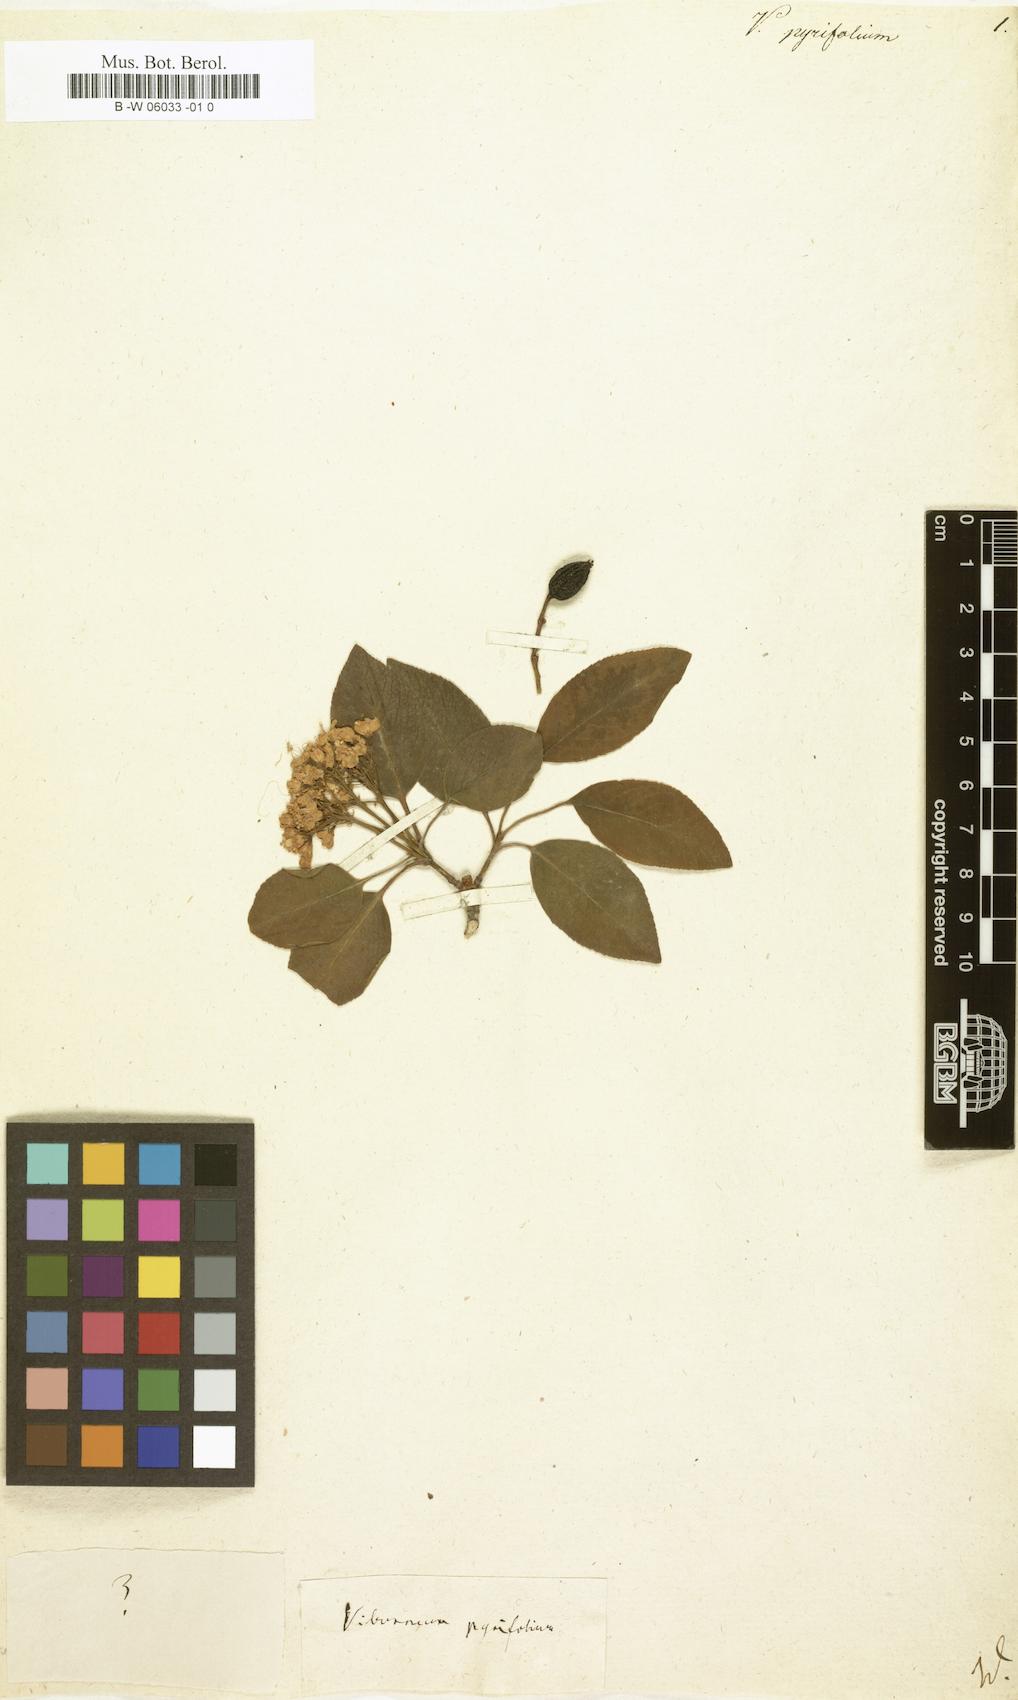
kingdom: Plantae
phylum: Tracheophyta
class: Magnoliopsida
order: Dipsacales
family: Viburnaceae
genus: Viburnum
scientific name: Viburnum
